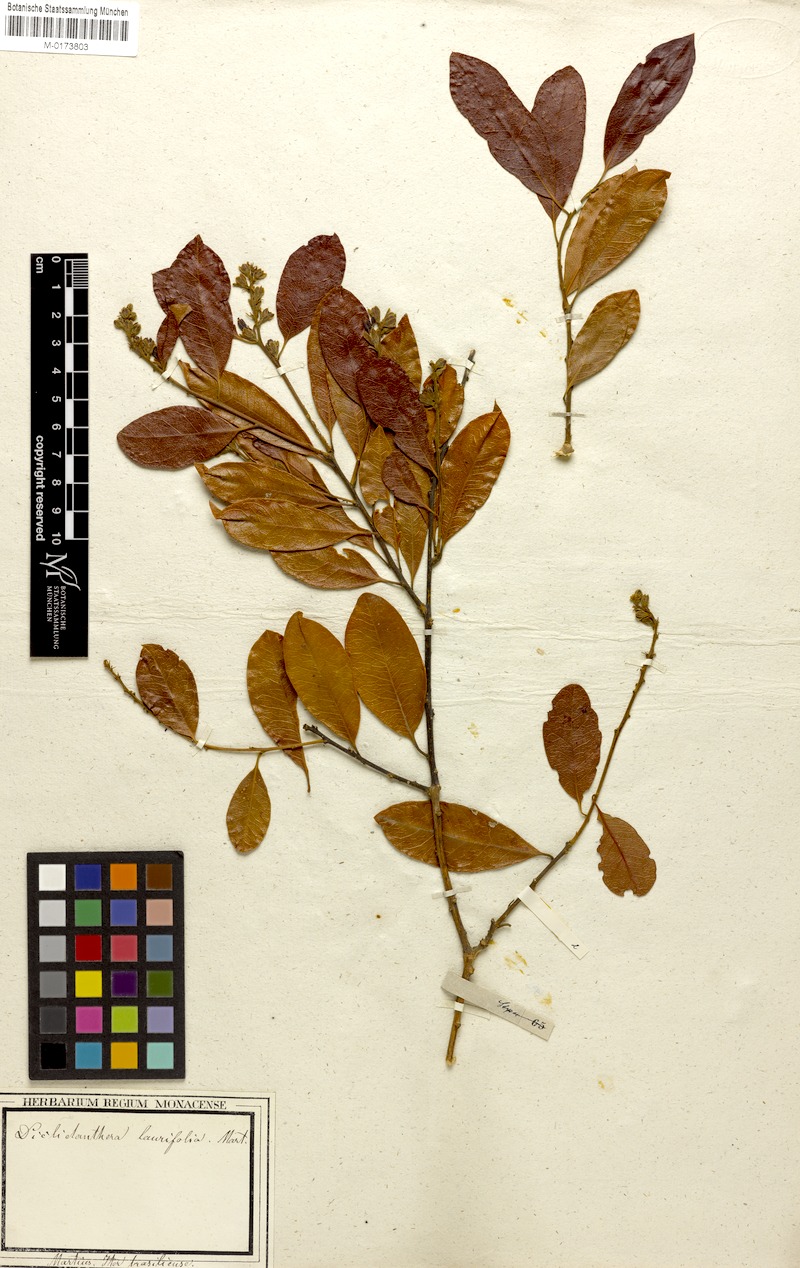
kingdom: Plantae
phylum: Tracheophyta
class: Magnoliopsida
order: Fabales
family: Polygalaceae
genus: Diclidanthera
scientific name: Diclidanthera laurifolia
